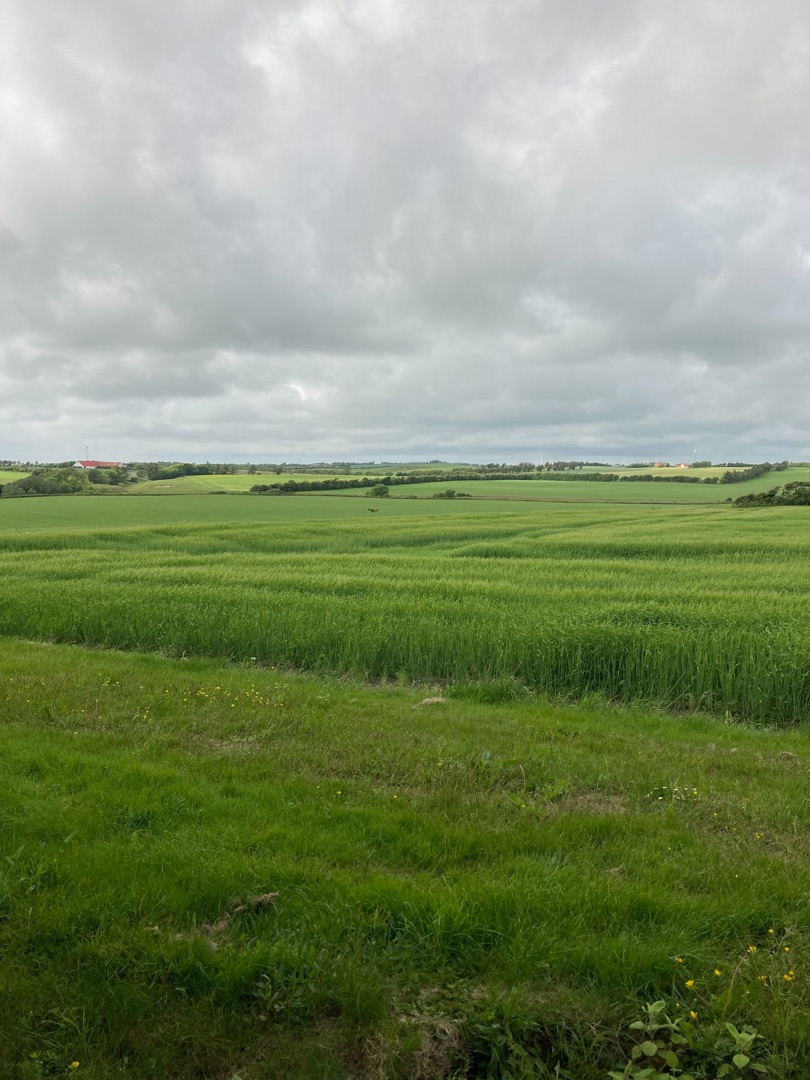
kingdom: Animalia
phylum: Chordata
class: Aves
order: Falconiformes
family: Falconidae
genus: Falco
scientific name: Falco tinnunculus
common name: Tårnfalk
